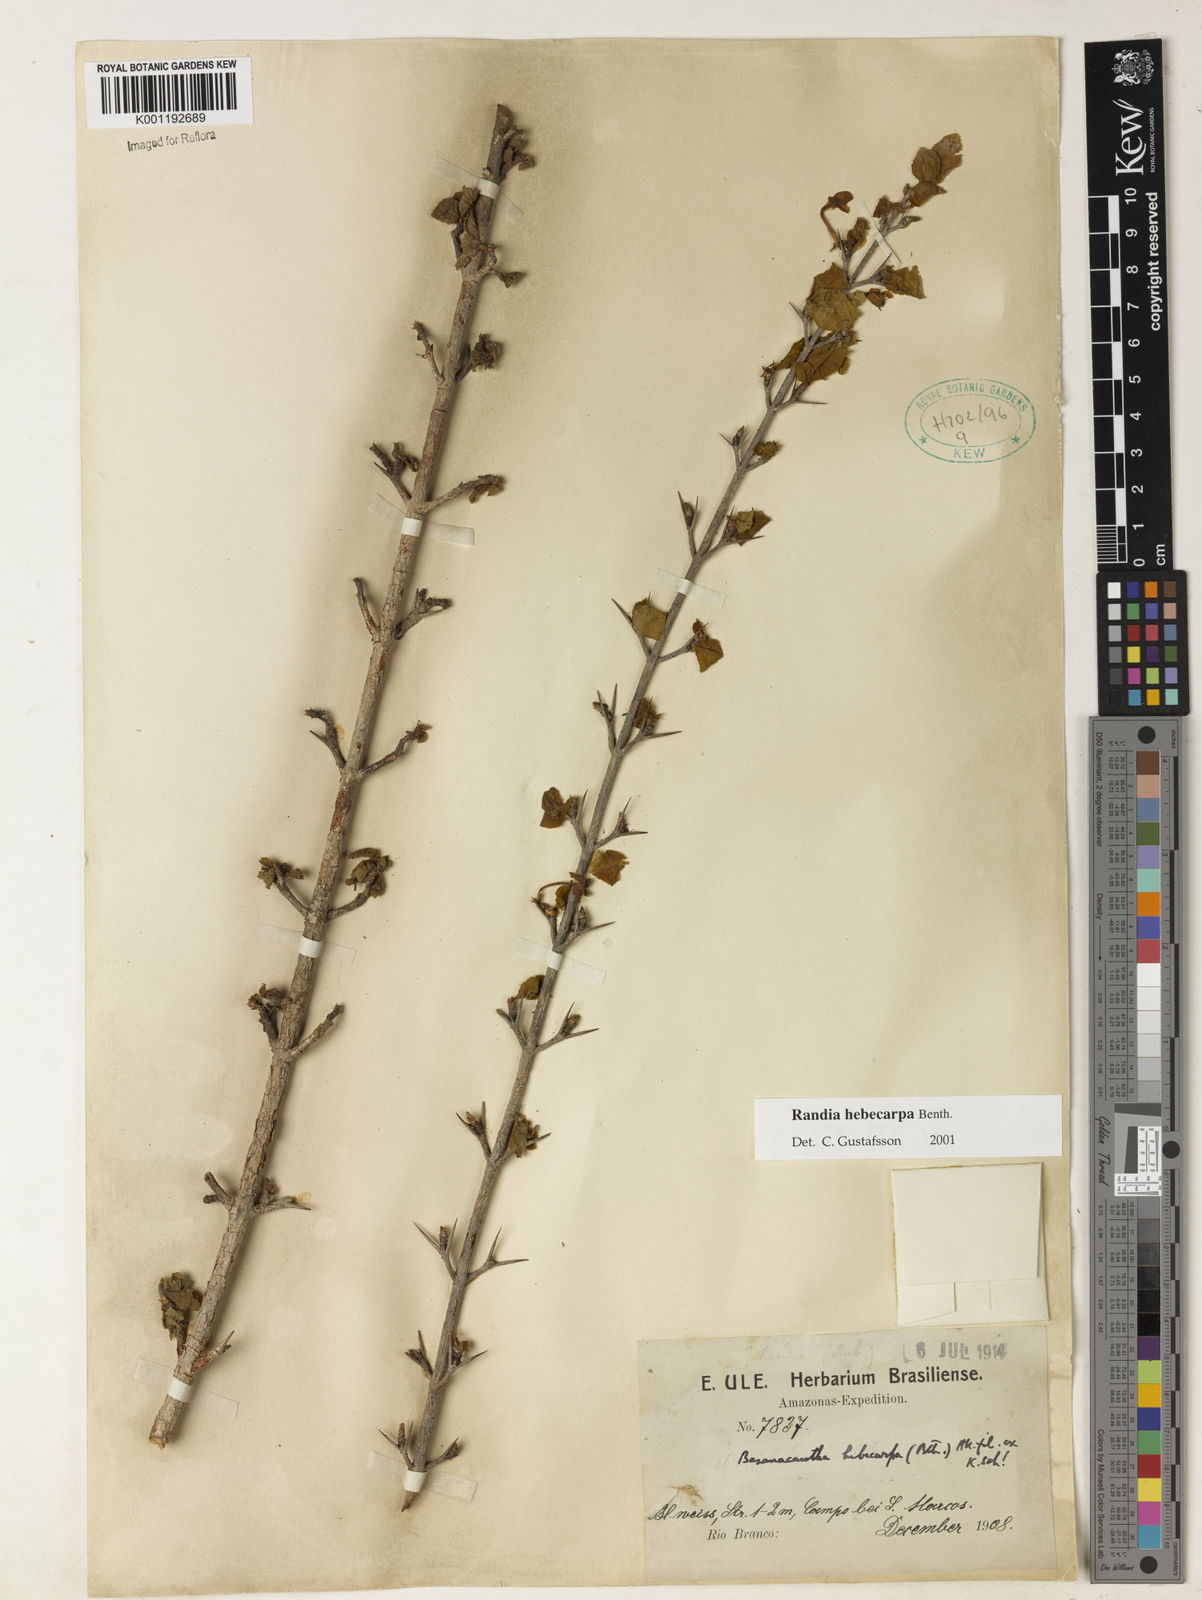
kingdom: Plantae
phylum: Tracheophyta
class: Magnoliopsida
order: Gentianales
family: Rubiaceae
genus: Randia
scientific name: Randia hebecarpa
